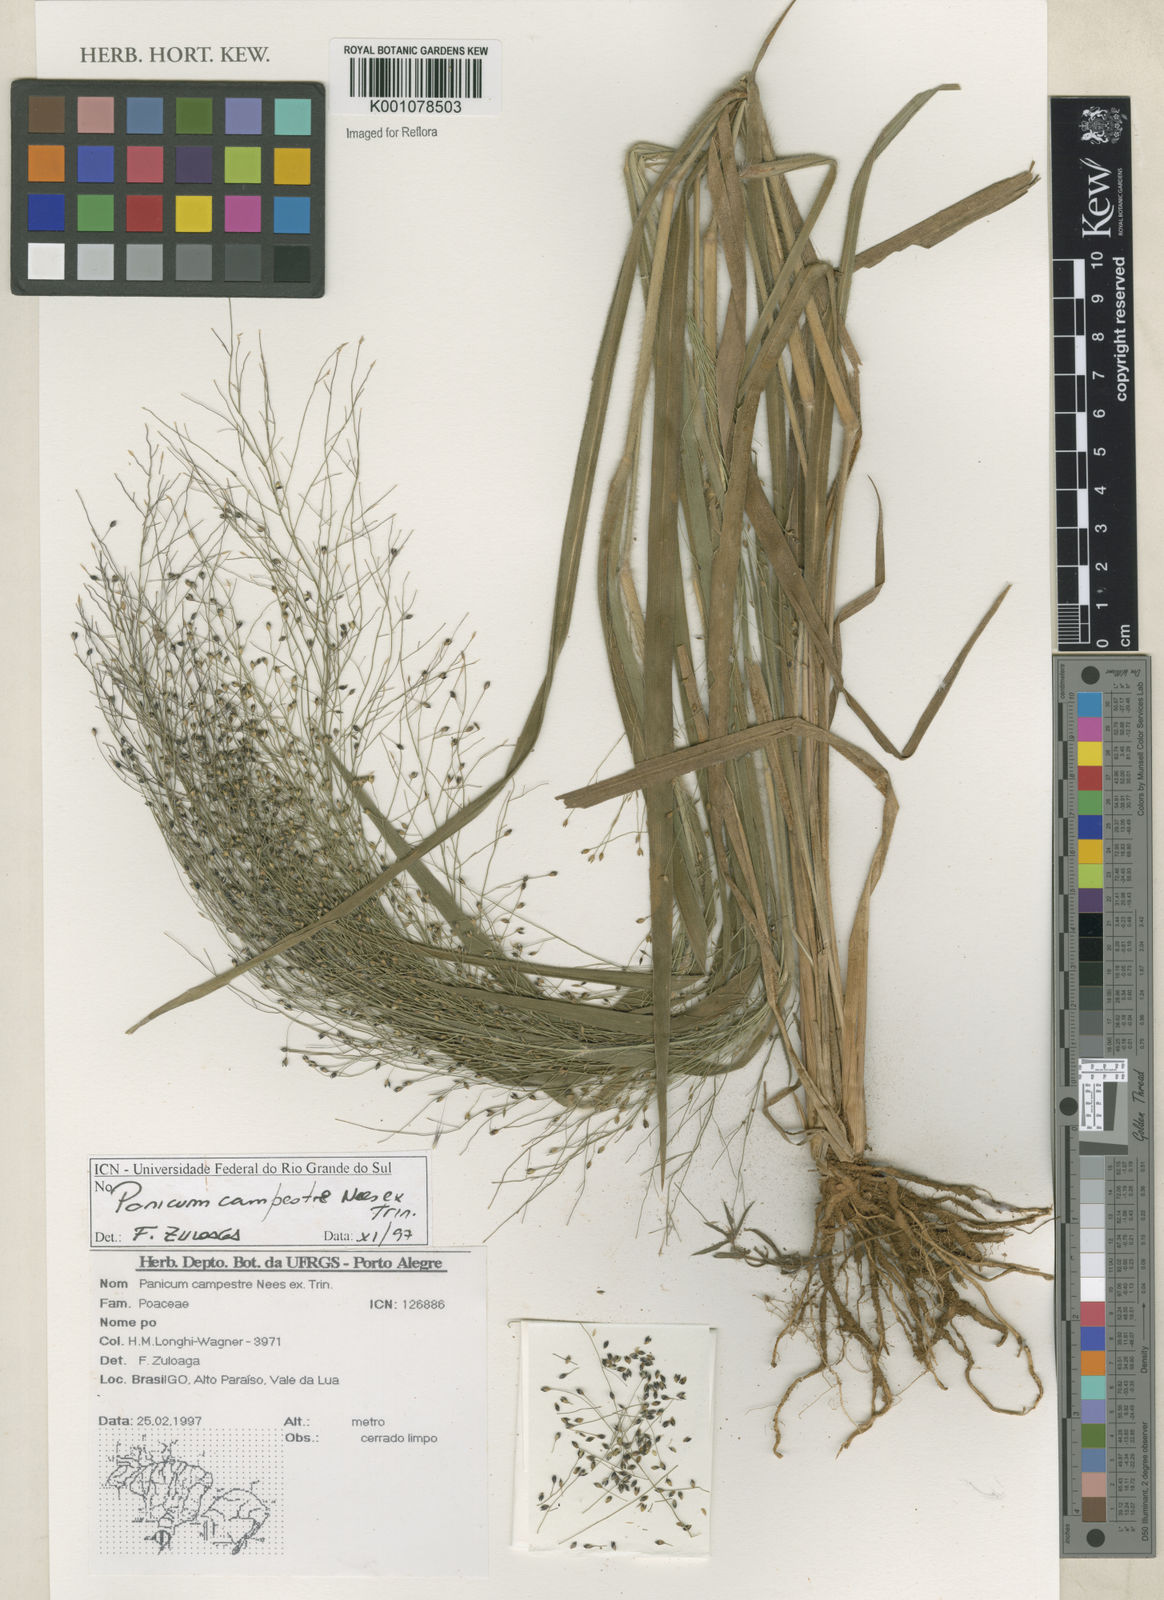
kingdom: Plantae
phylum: Tracheophyta
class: Liliopsida
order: Poales
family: Poaceae
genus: Panicum
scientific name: Panicum campestre
